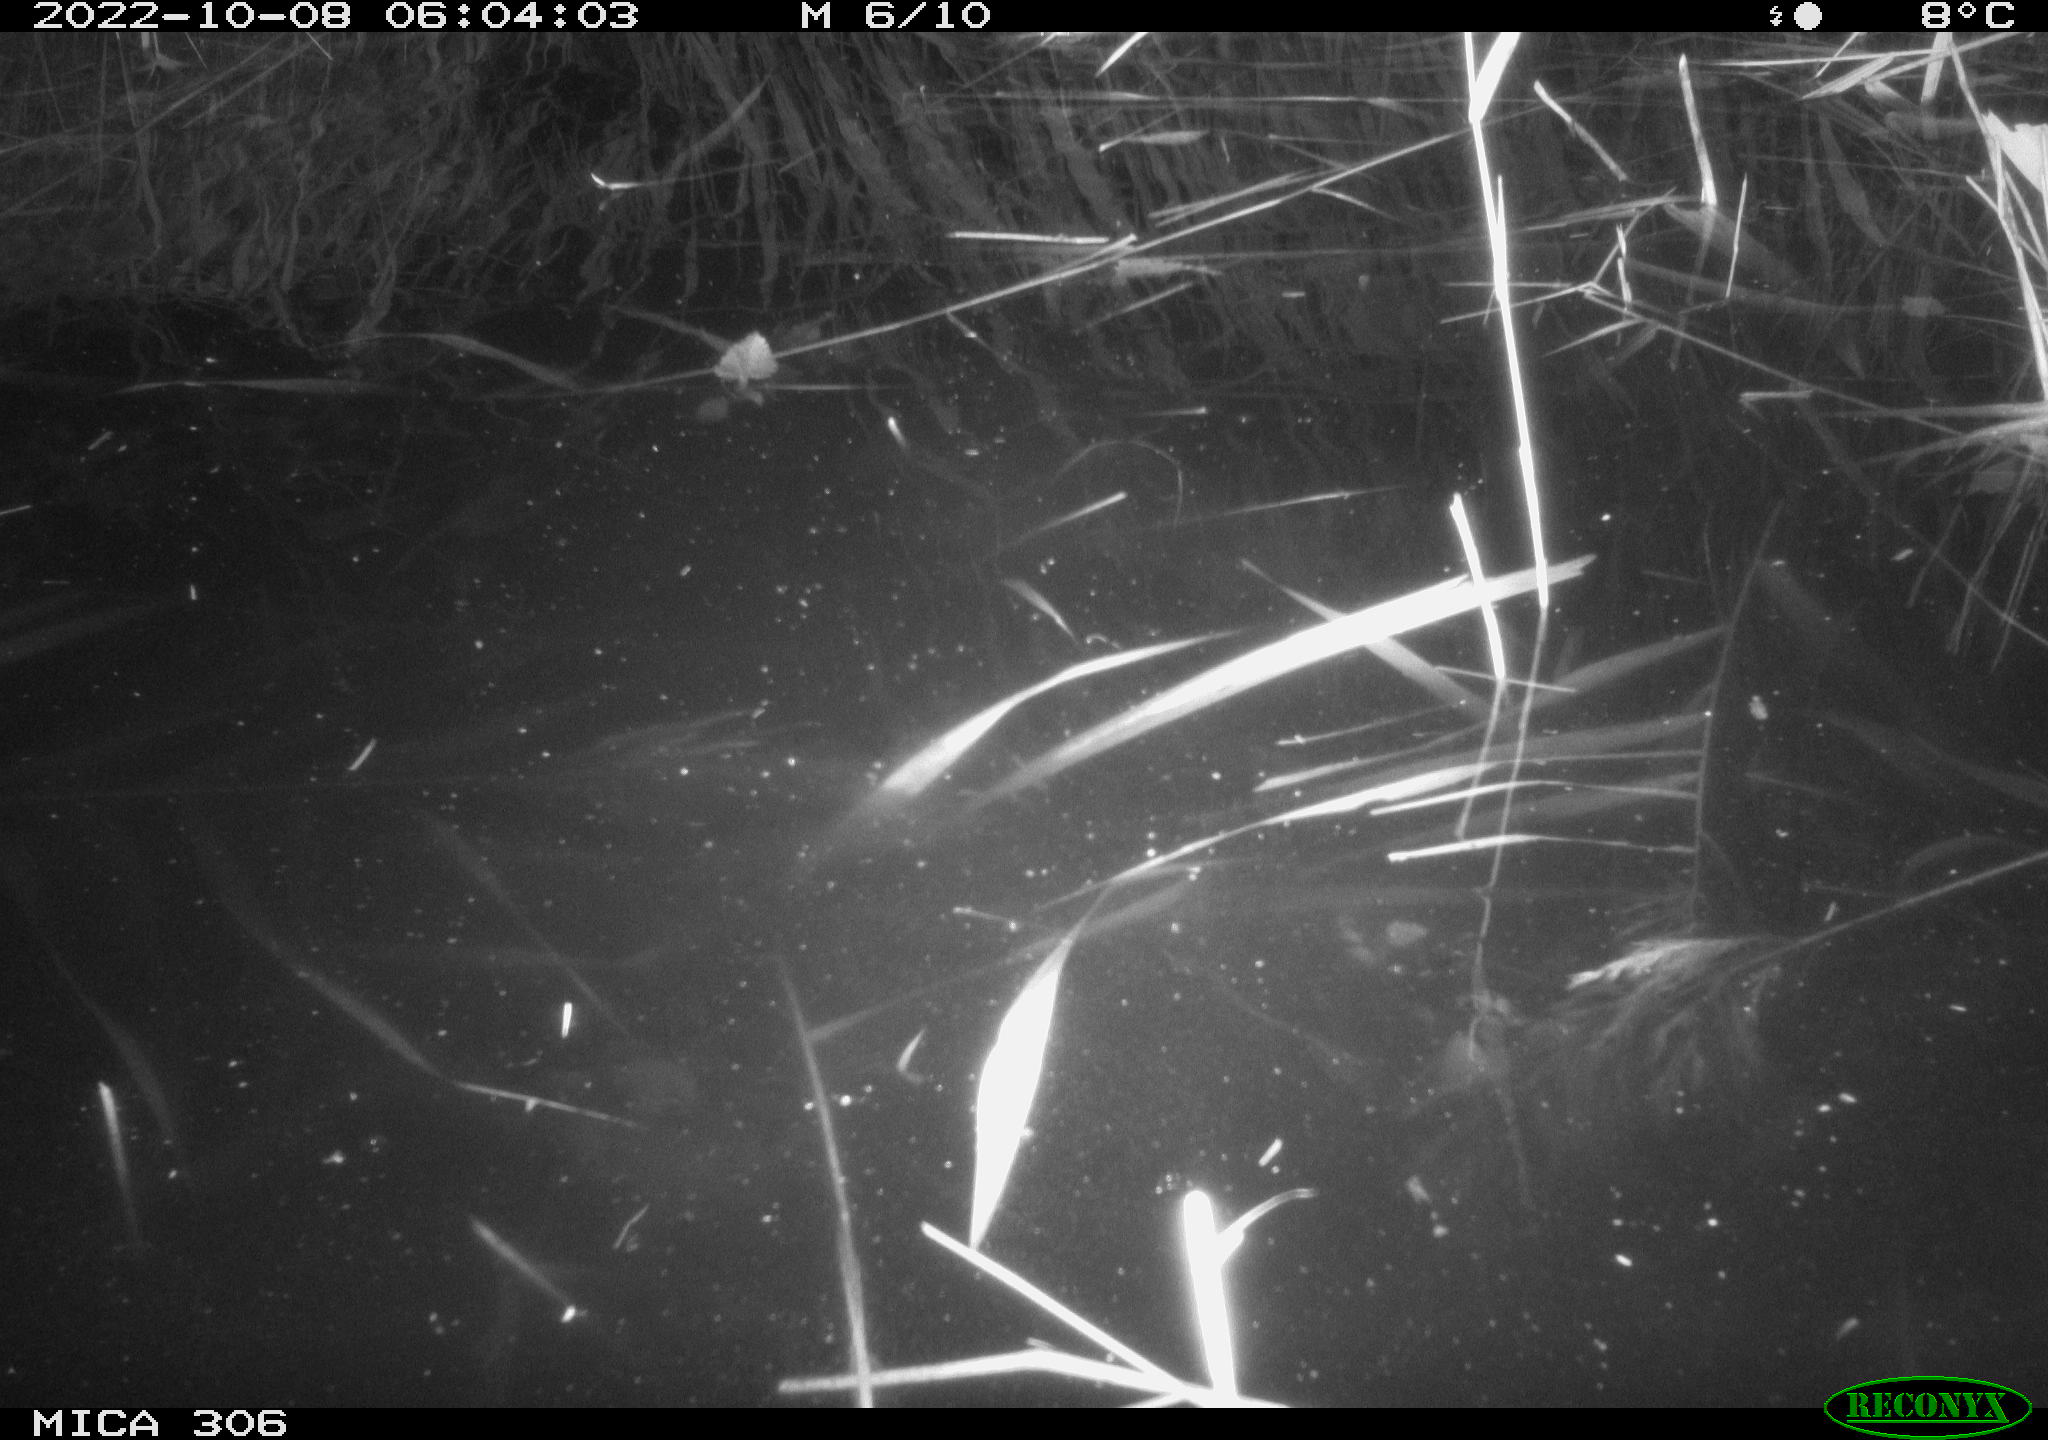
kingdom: Animalia
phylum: Chordata
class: Mammalia
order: Rodentia
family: Muridae
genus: Rattus
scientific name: Rattus norvegicus
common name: Brown rat
